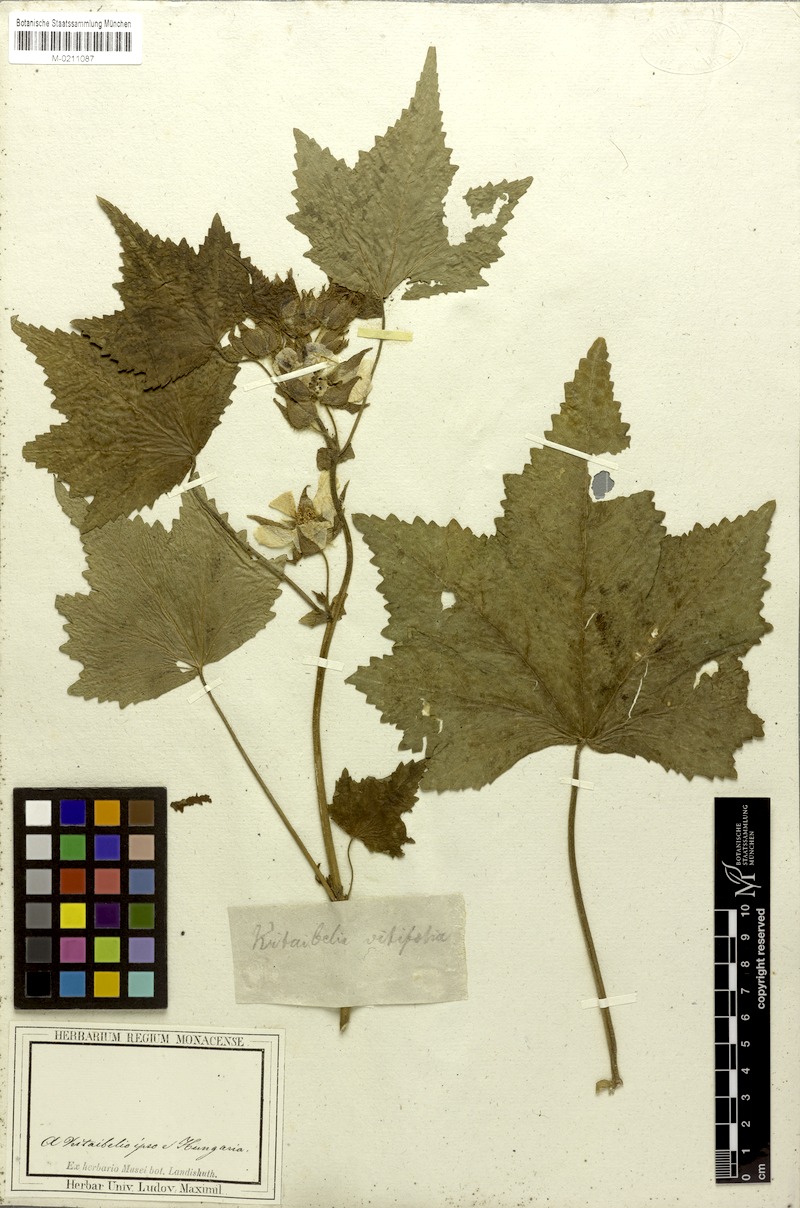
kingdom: Plantae
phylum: Tracheophyta
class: Magnoliopsida
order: Malvales
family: Malvaceae
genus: Kitaibela
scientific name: Kitaibela vitifolia
